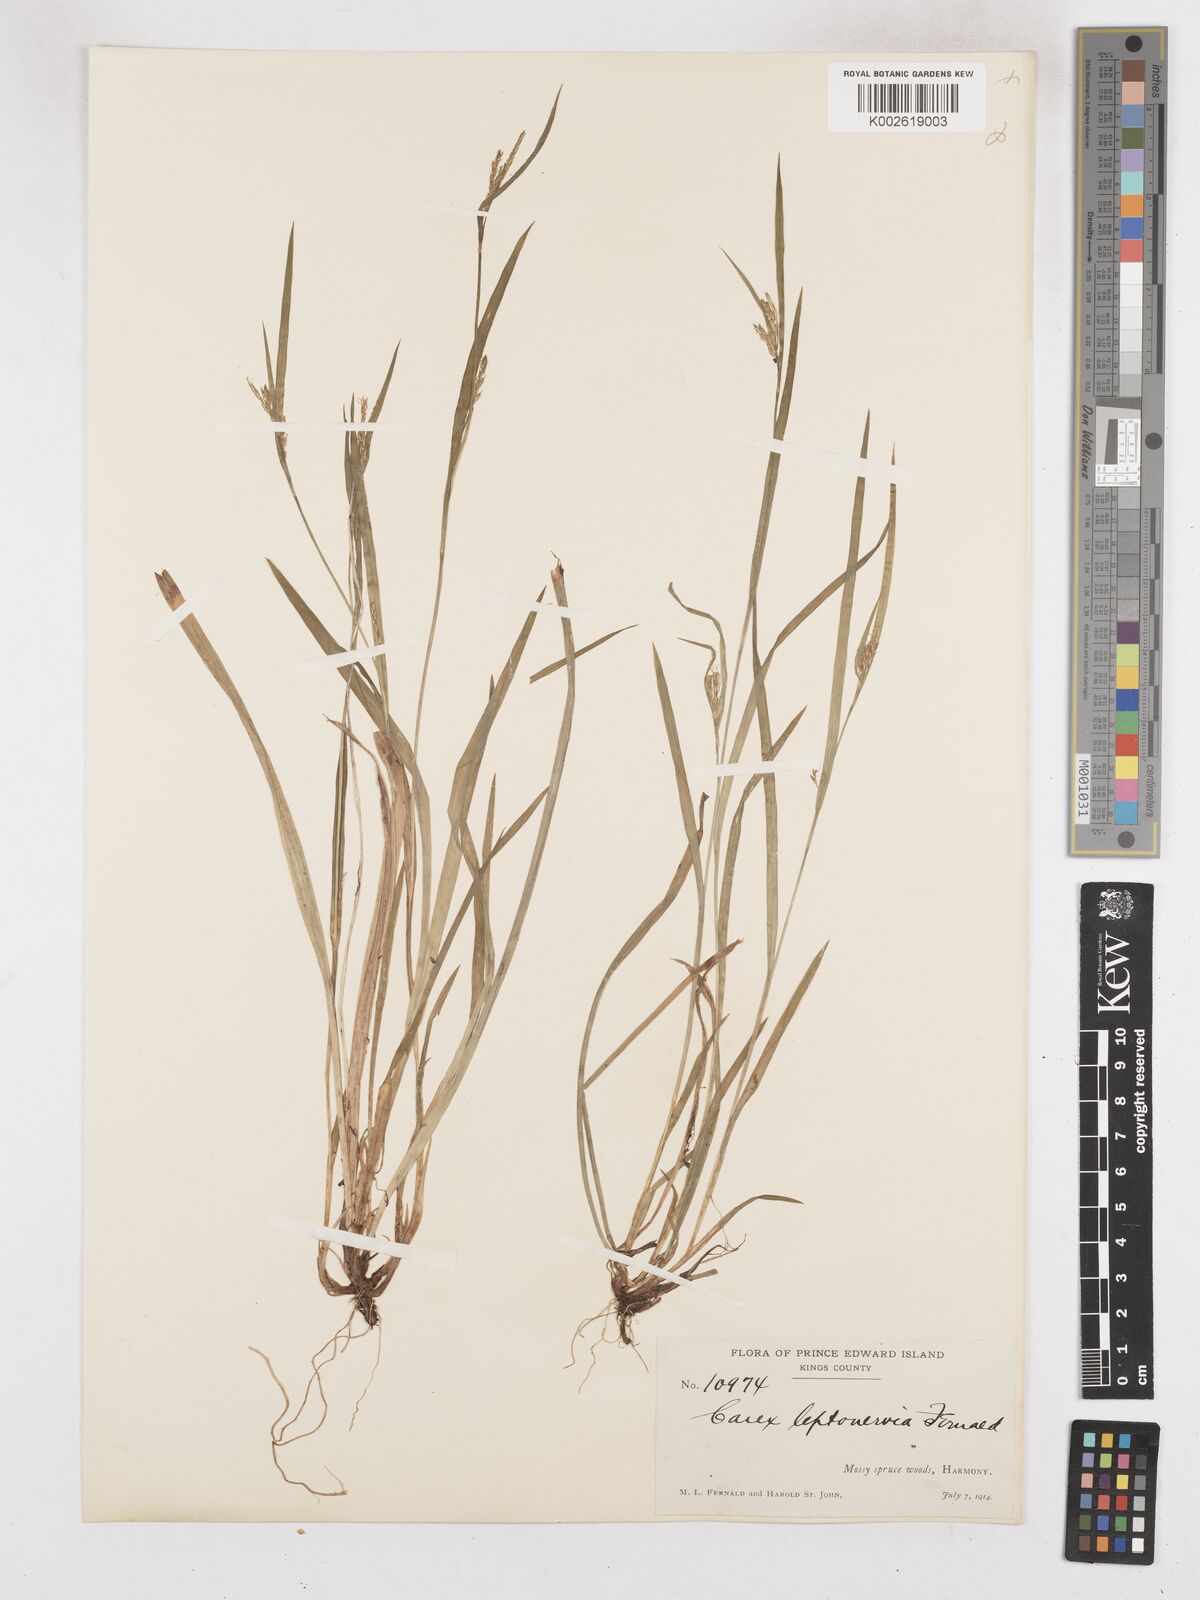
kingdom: Plantae
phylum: Tracheophyta
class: Liliopsida
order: Poales
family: Cyperaceae
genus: Carex
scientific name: Carex leptonervia
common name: Few-nerved wood sedge
